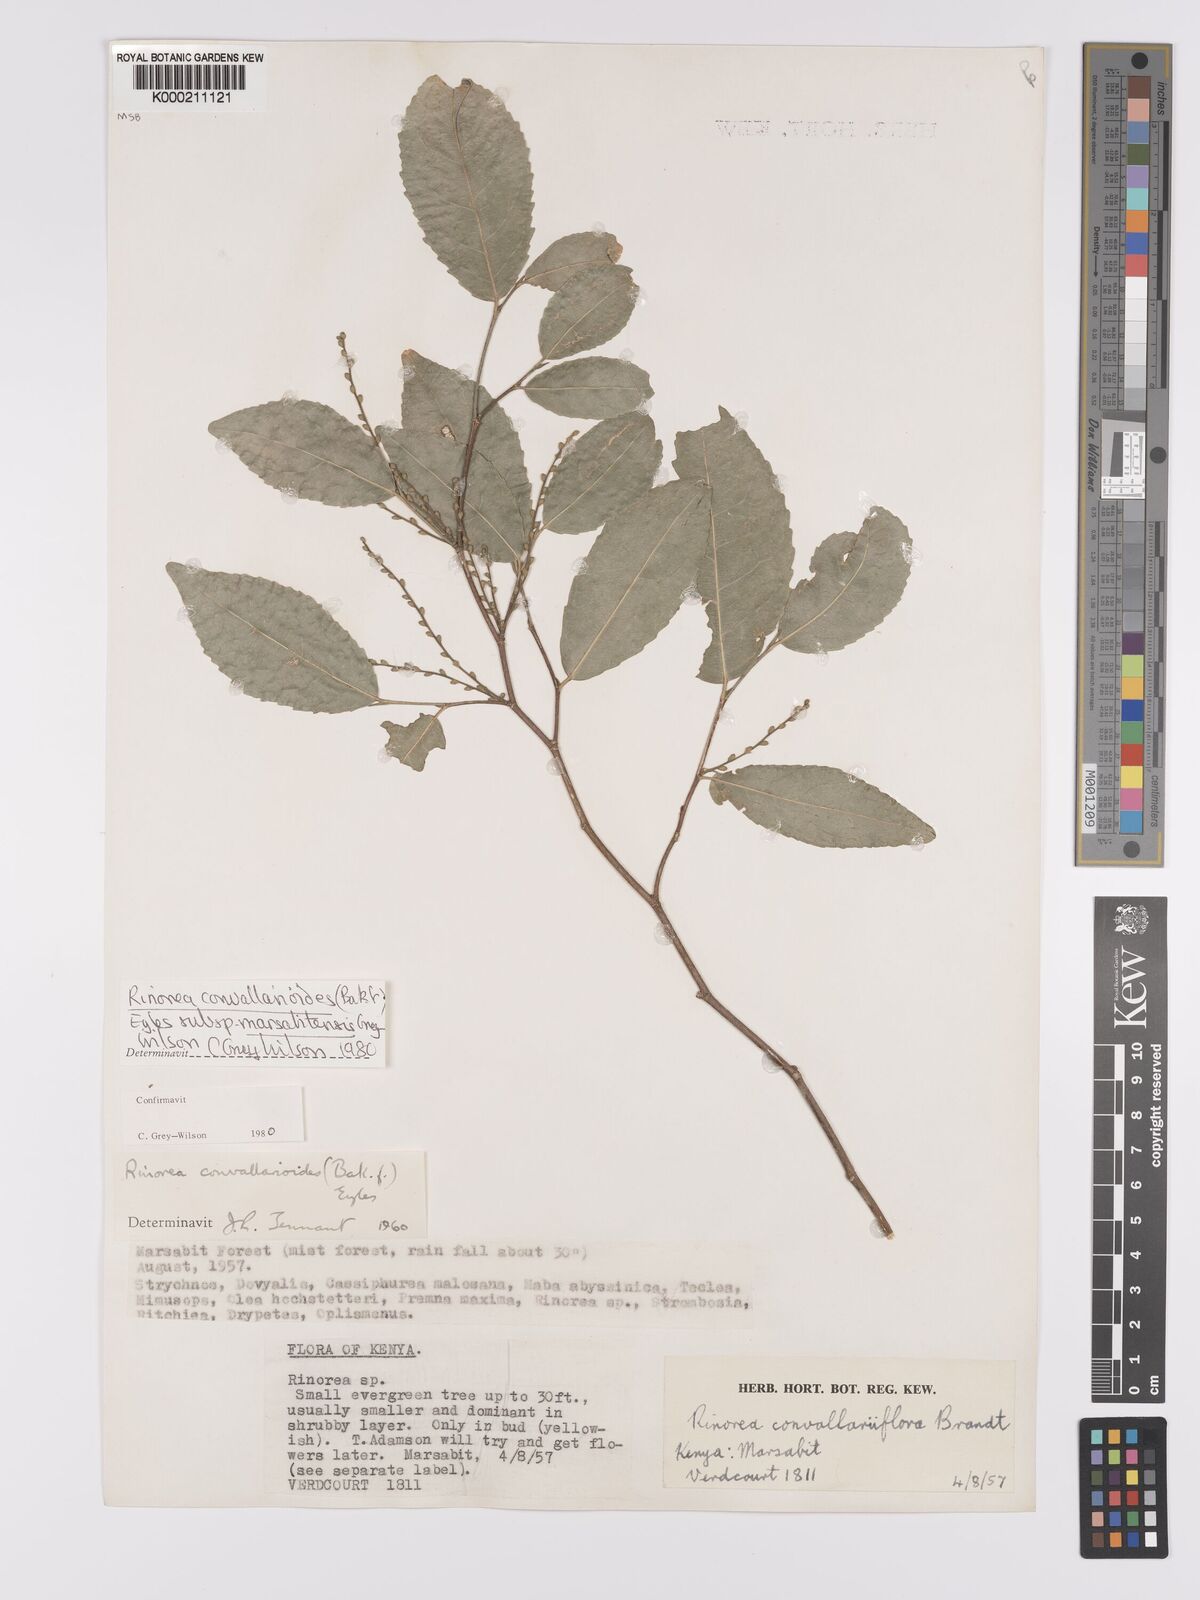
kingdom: Plantae
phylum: Tracheophyta
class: Magnoliopsida
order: Malpighiales
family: Violaceae
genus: Rinorea
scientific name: Rinorea convallarioides
